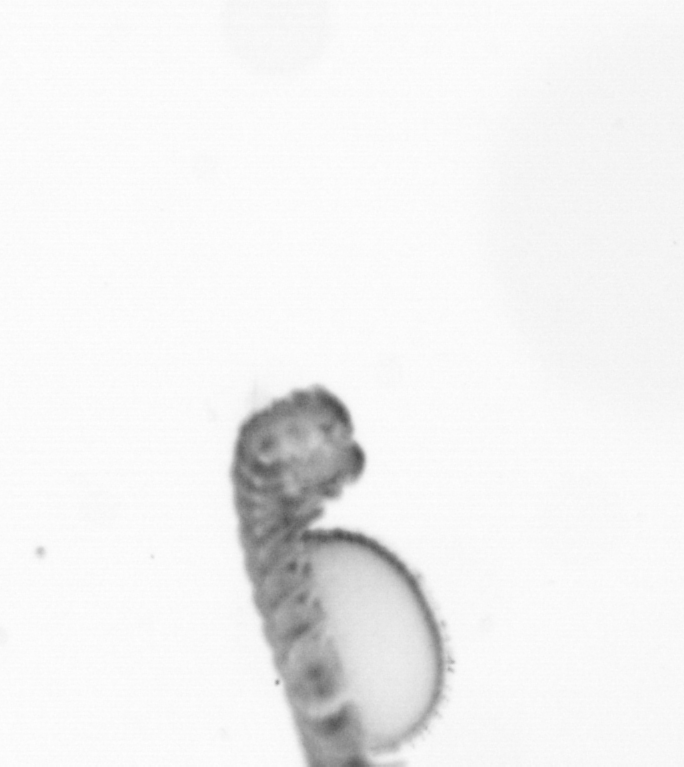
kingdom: Animalia
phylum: Annelida
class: Polychaeta
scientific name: Polychaeta
